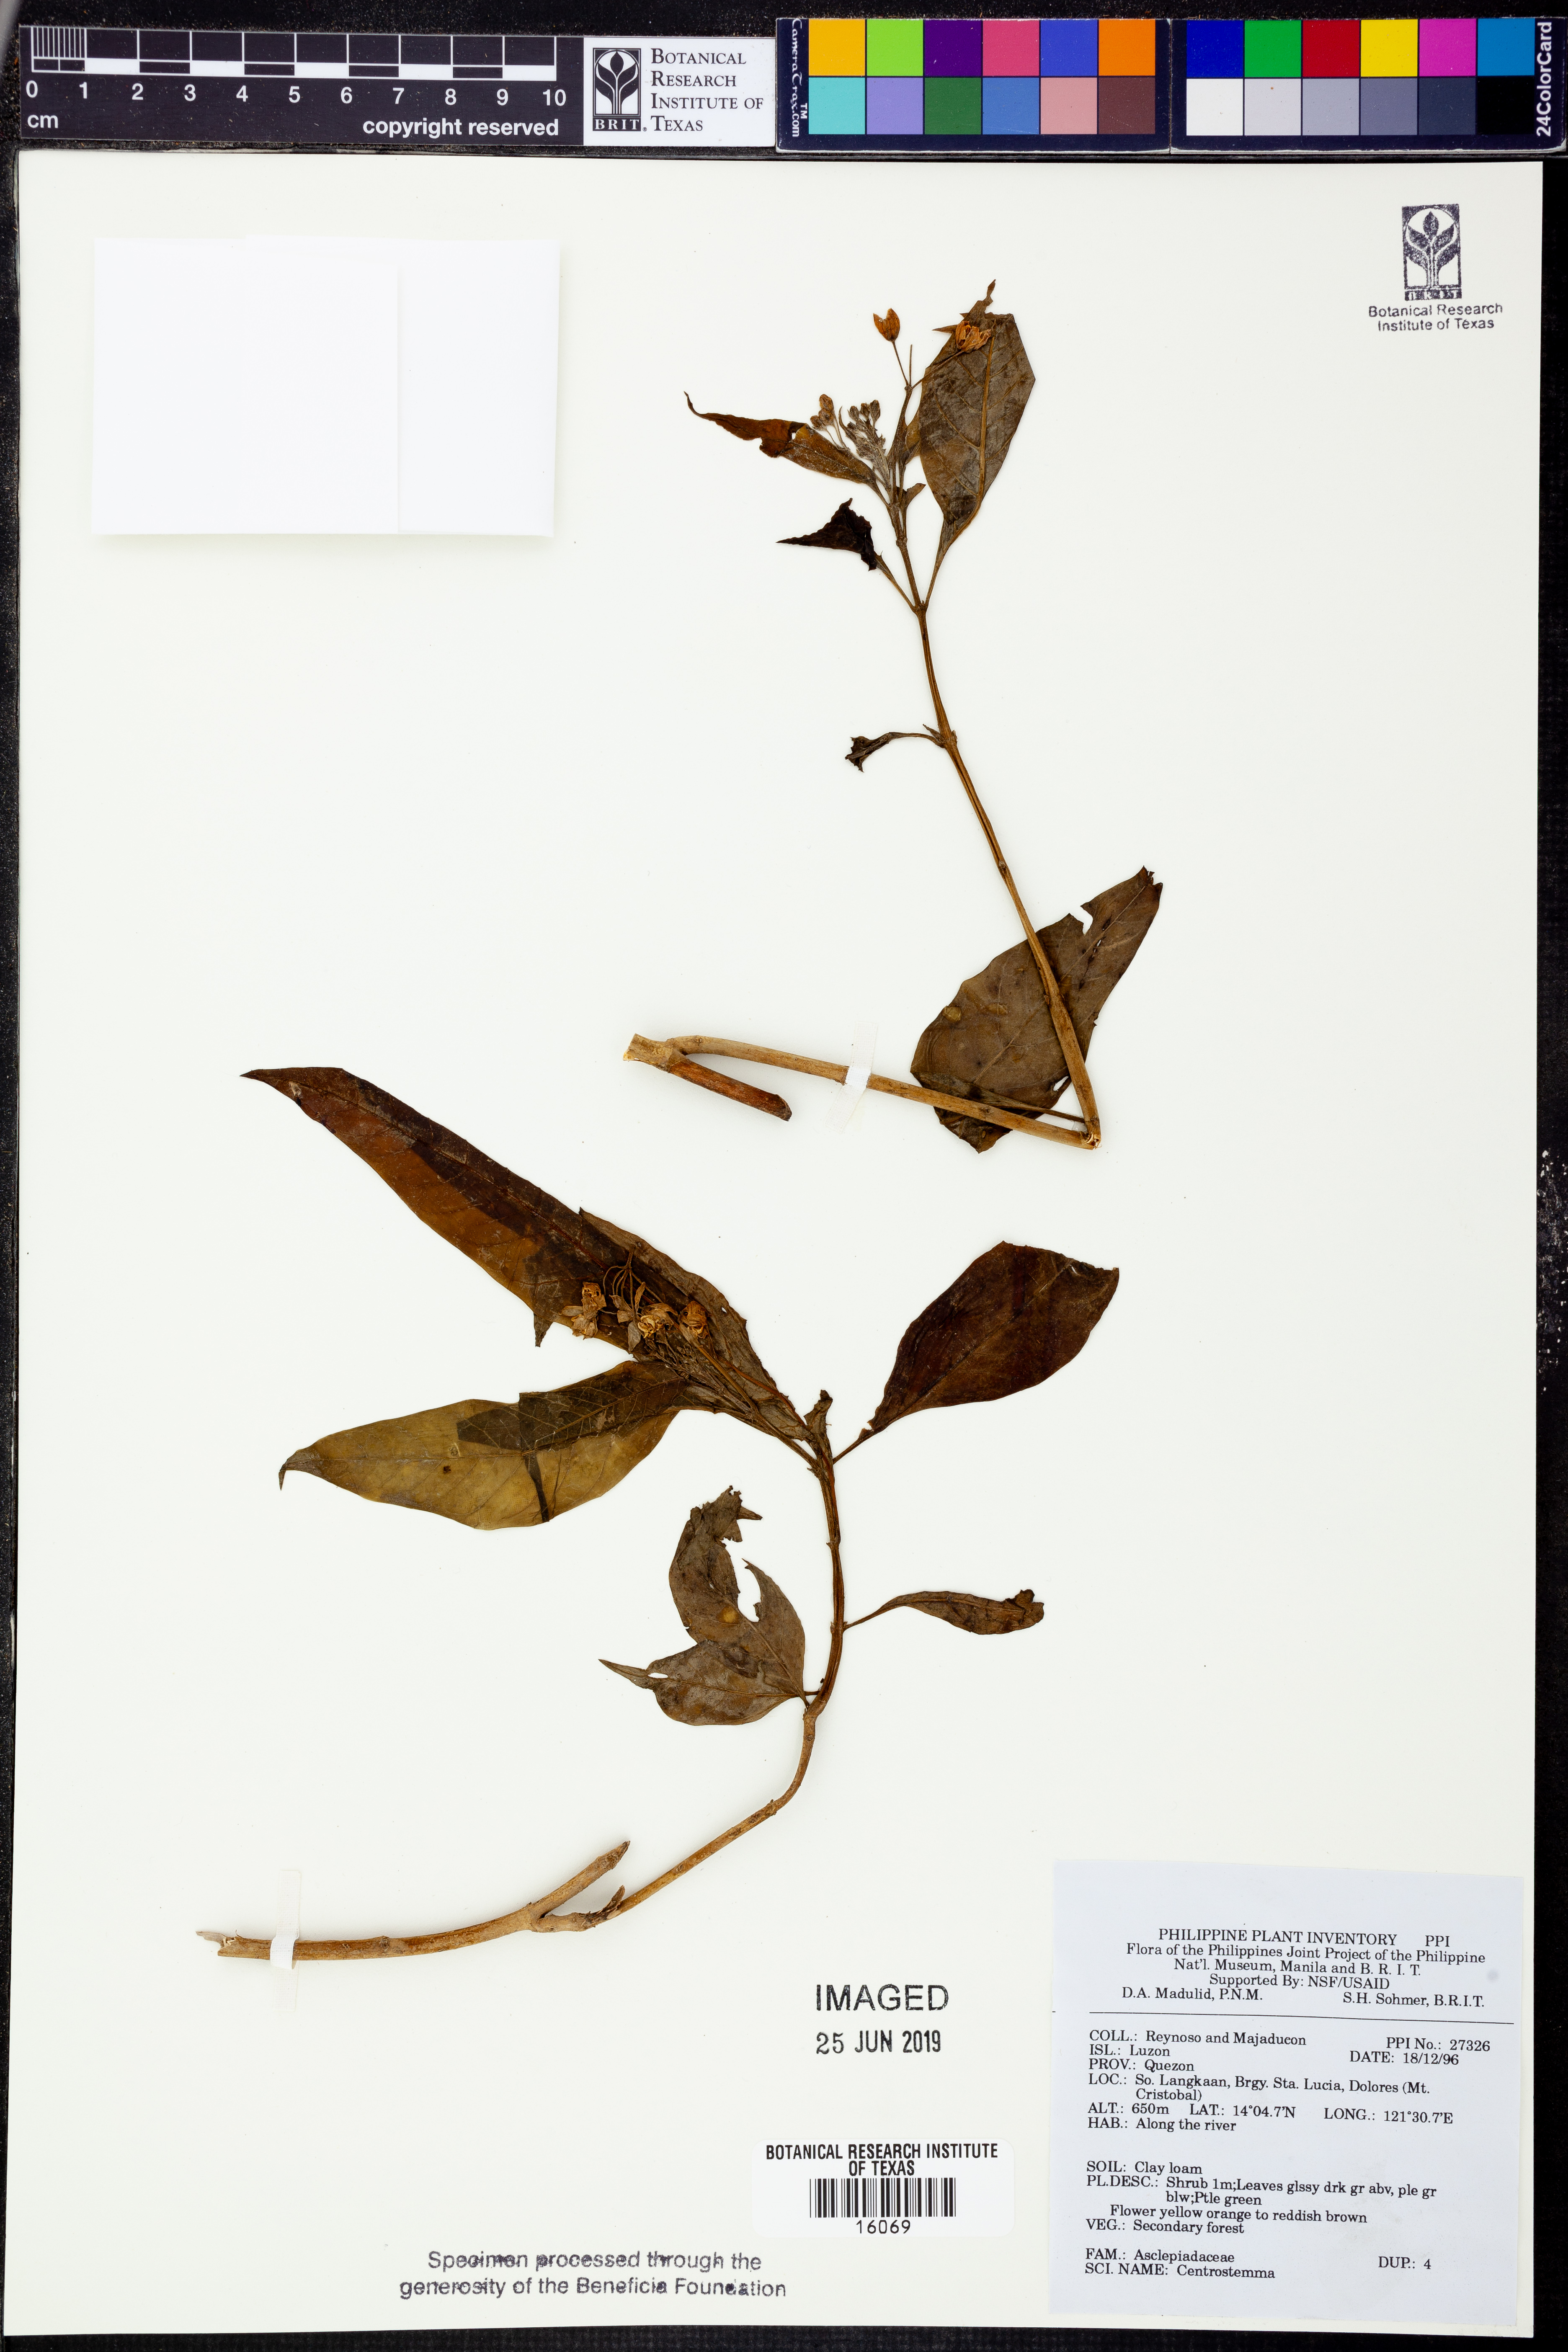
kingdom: Plantae
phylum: Tracheophyta
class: Magnoliopsida
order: Gentianales
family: Apocynaceae
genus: Hoya
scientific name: Hoya
